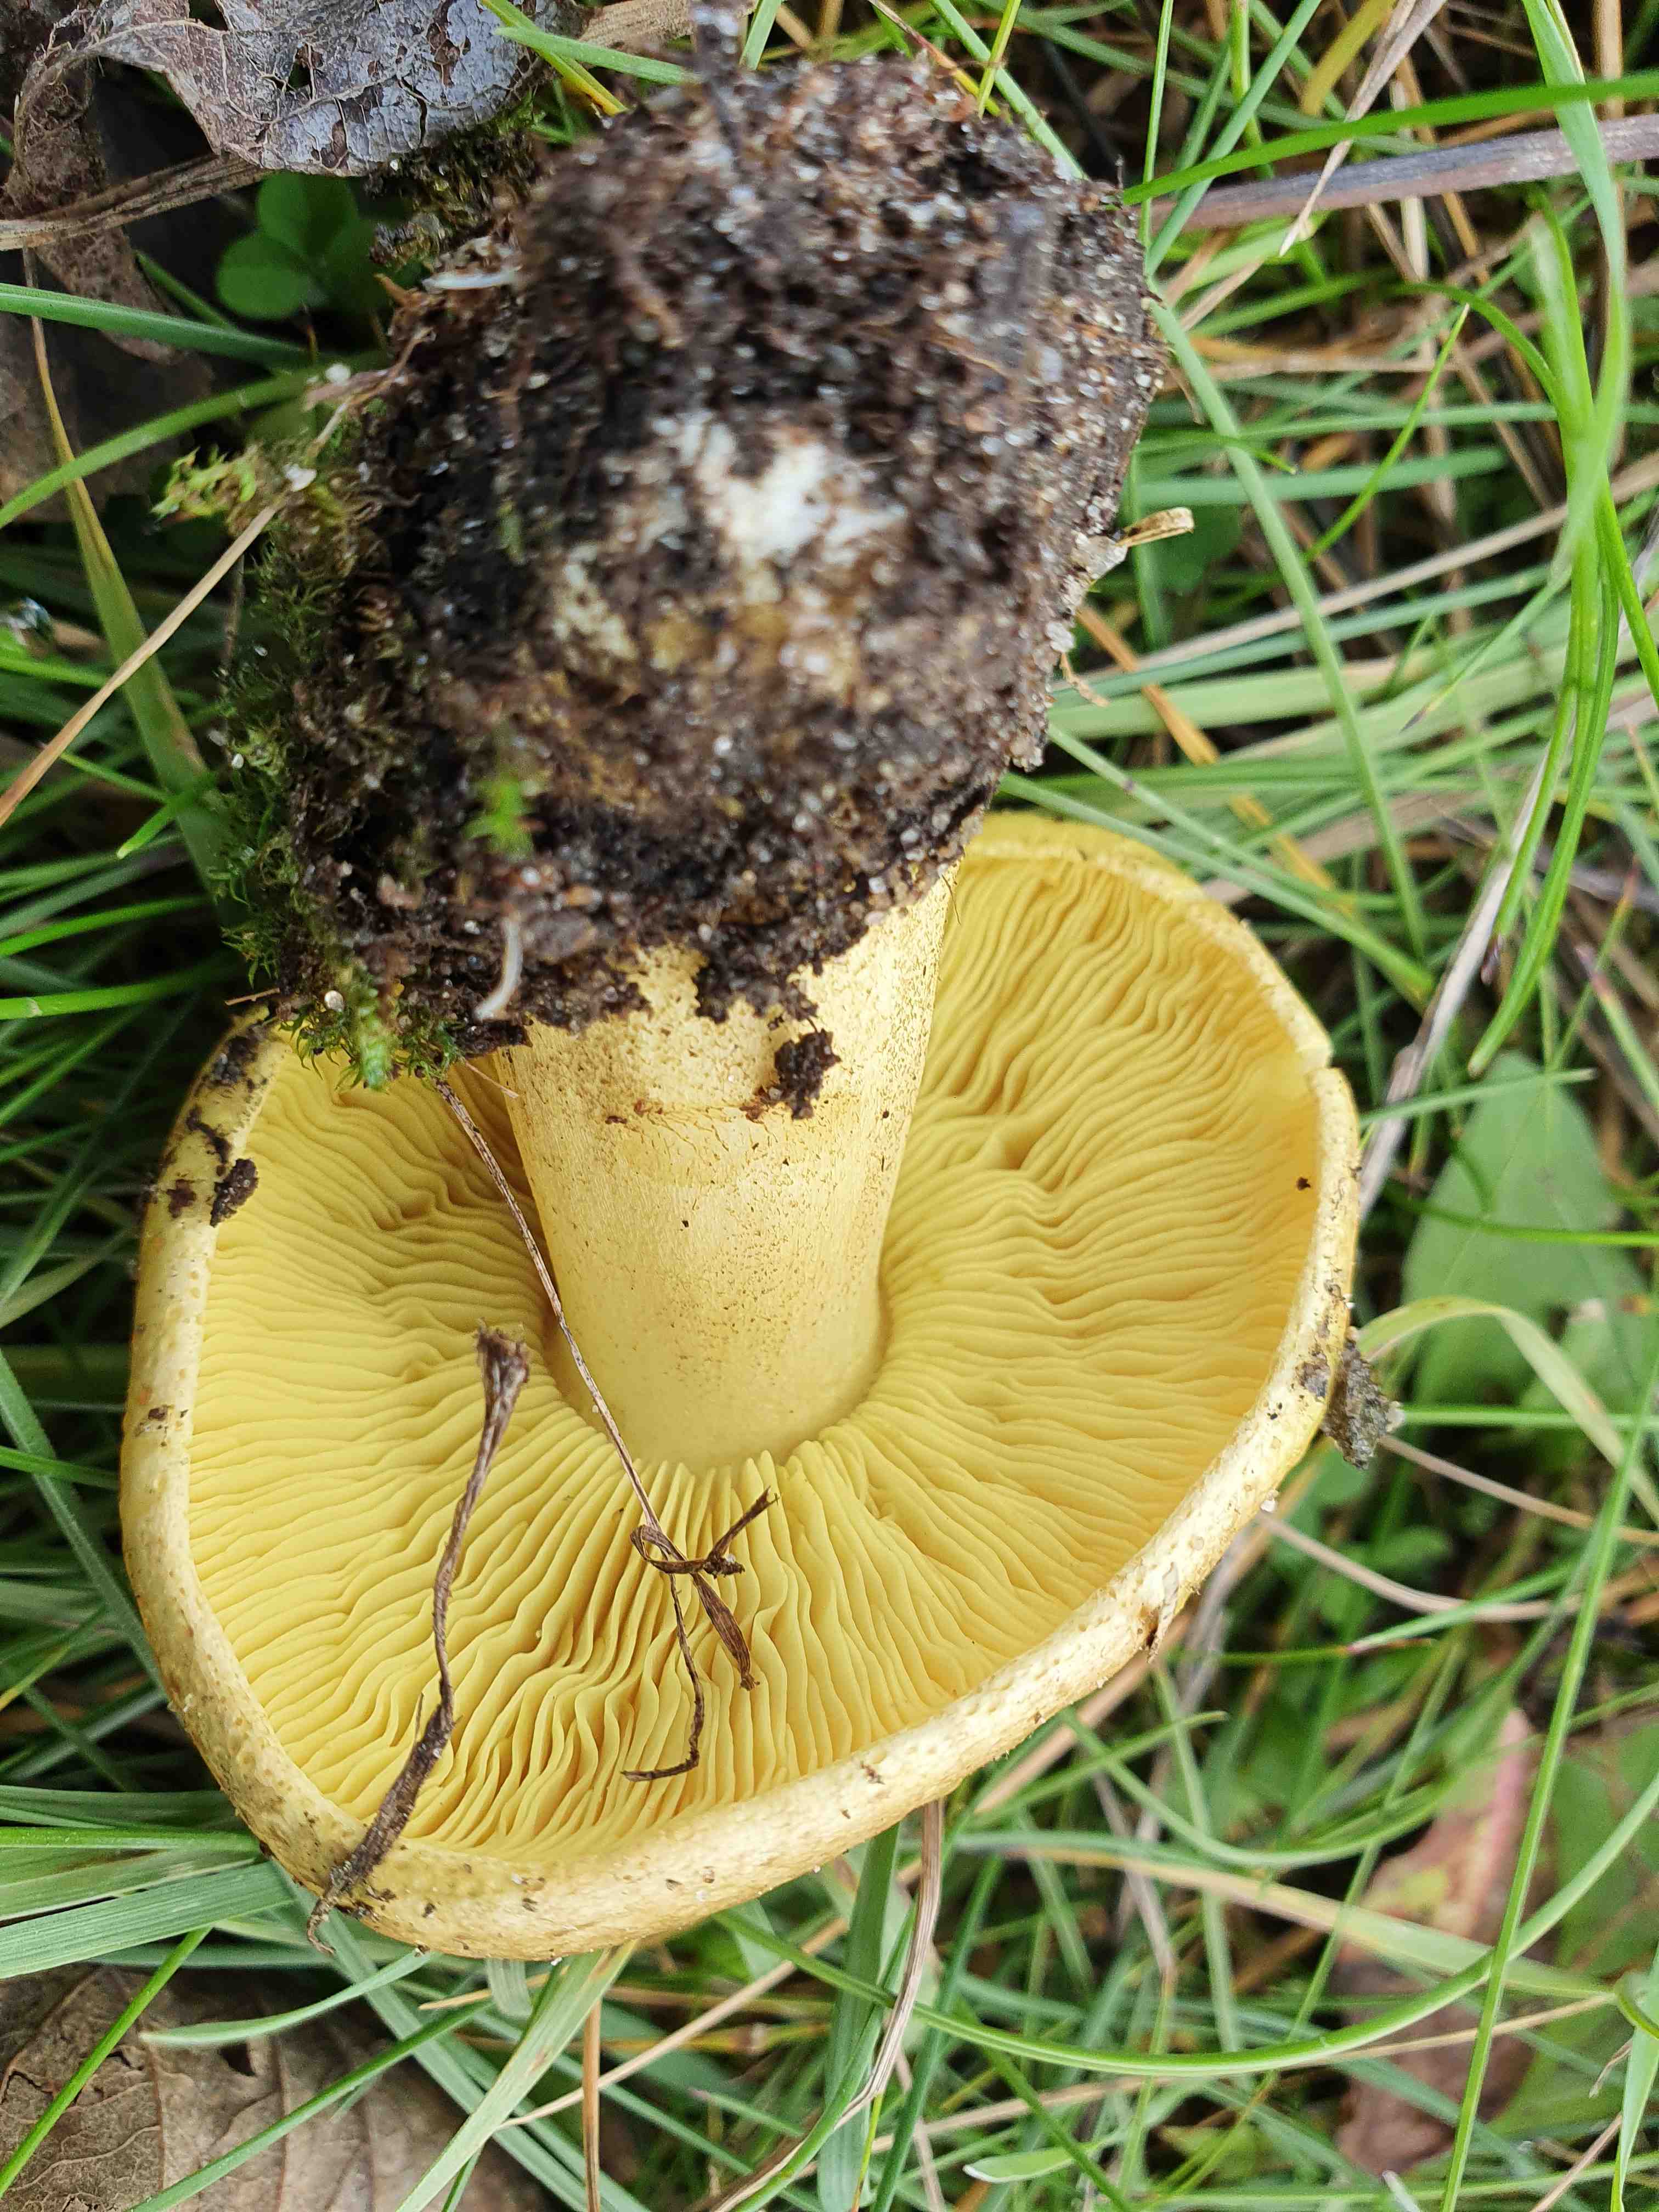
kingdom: Fungi
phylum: Basidiomycota
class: Agaricomycetes
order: Agaricales
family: Tricholomataceae
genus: Tricholoma
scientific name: Tricholoma frondosae
